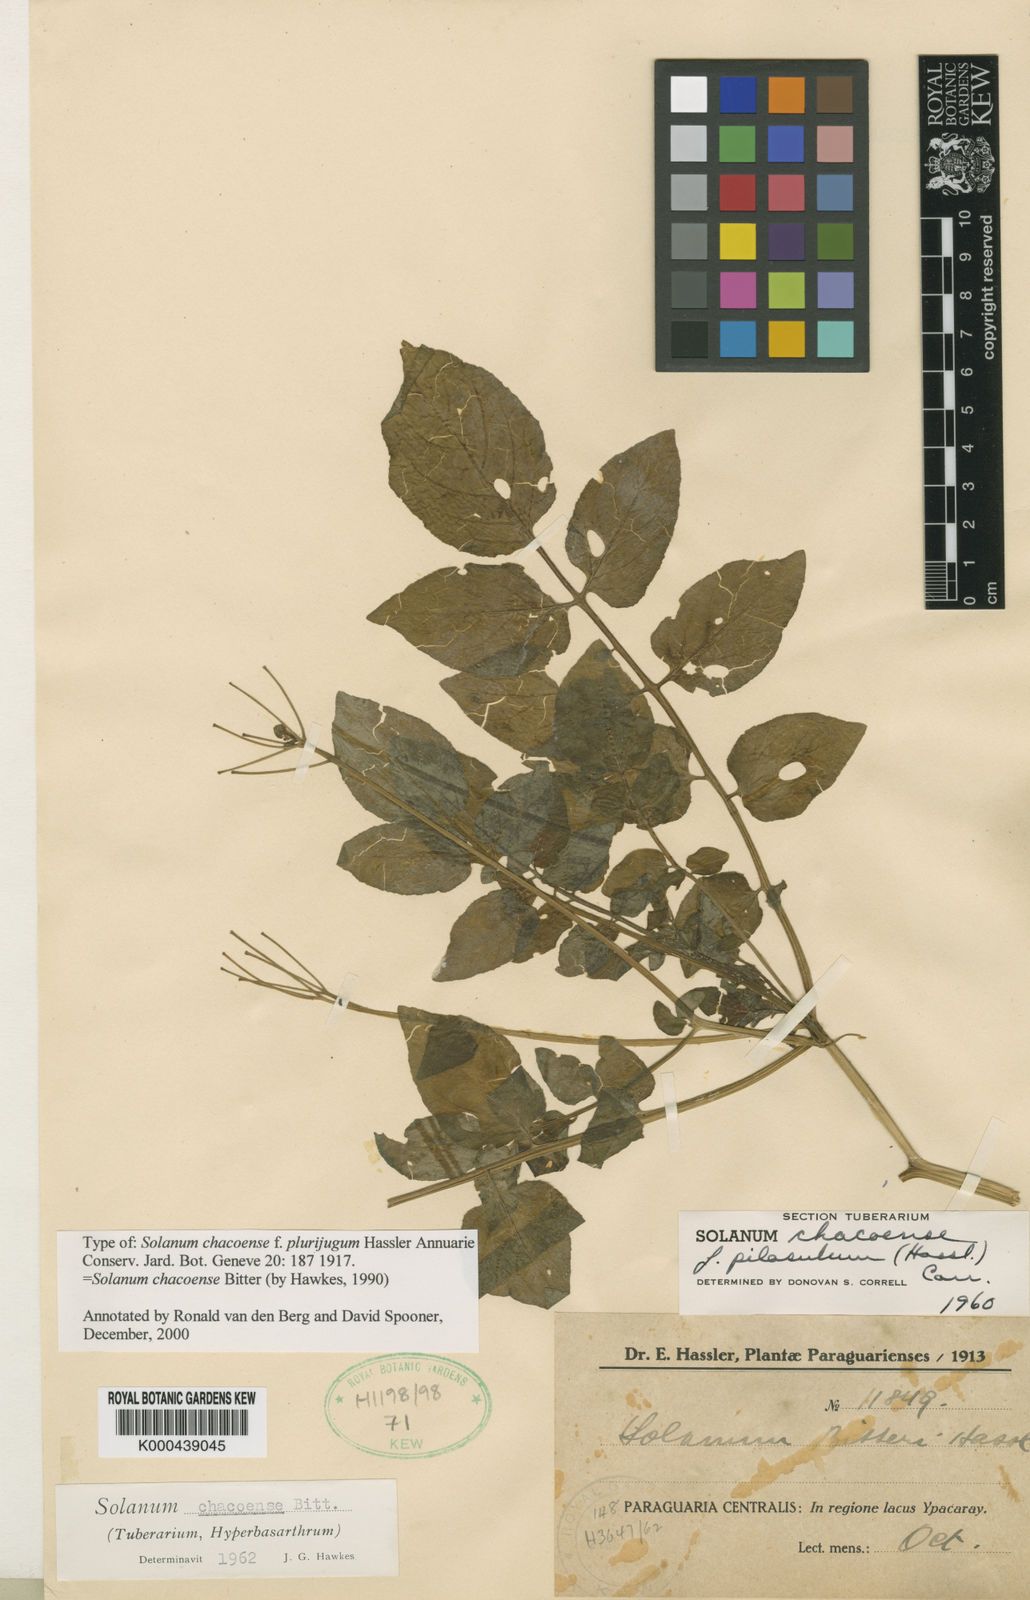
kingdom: Plantae
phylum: Tracheophyta
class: Magnoliopsida
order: Solanales
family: Solanaceae
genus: Solanum
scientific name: Solanum chacoense
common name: Chaco potato
